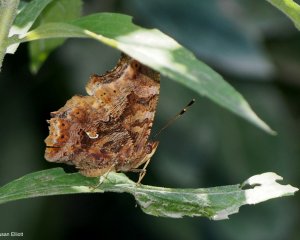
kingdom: Animalia
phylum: Arthropoda
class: Insecta
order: Lepidoptera
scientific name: Lepidoptera
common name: Butterflies
